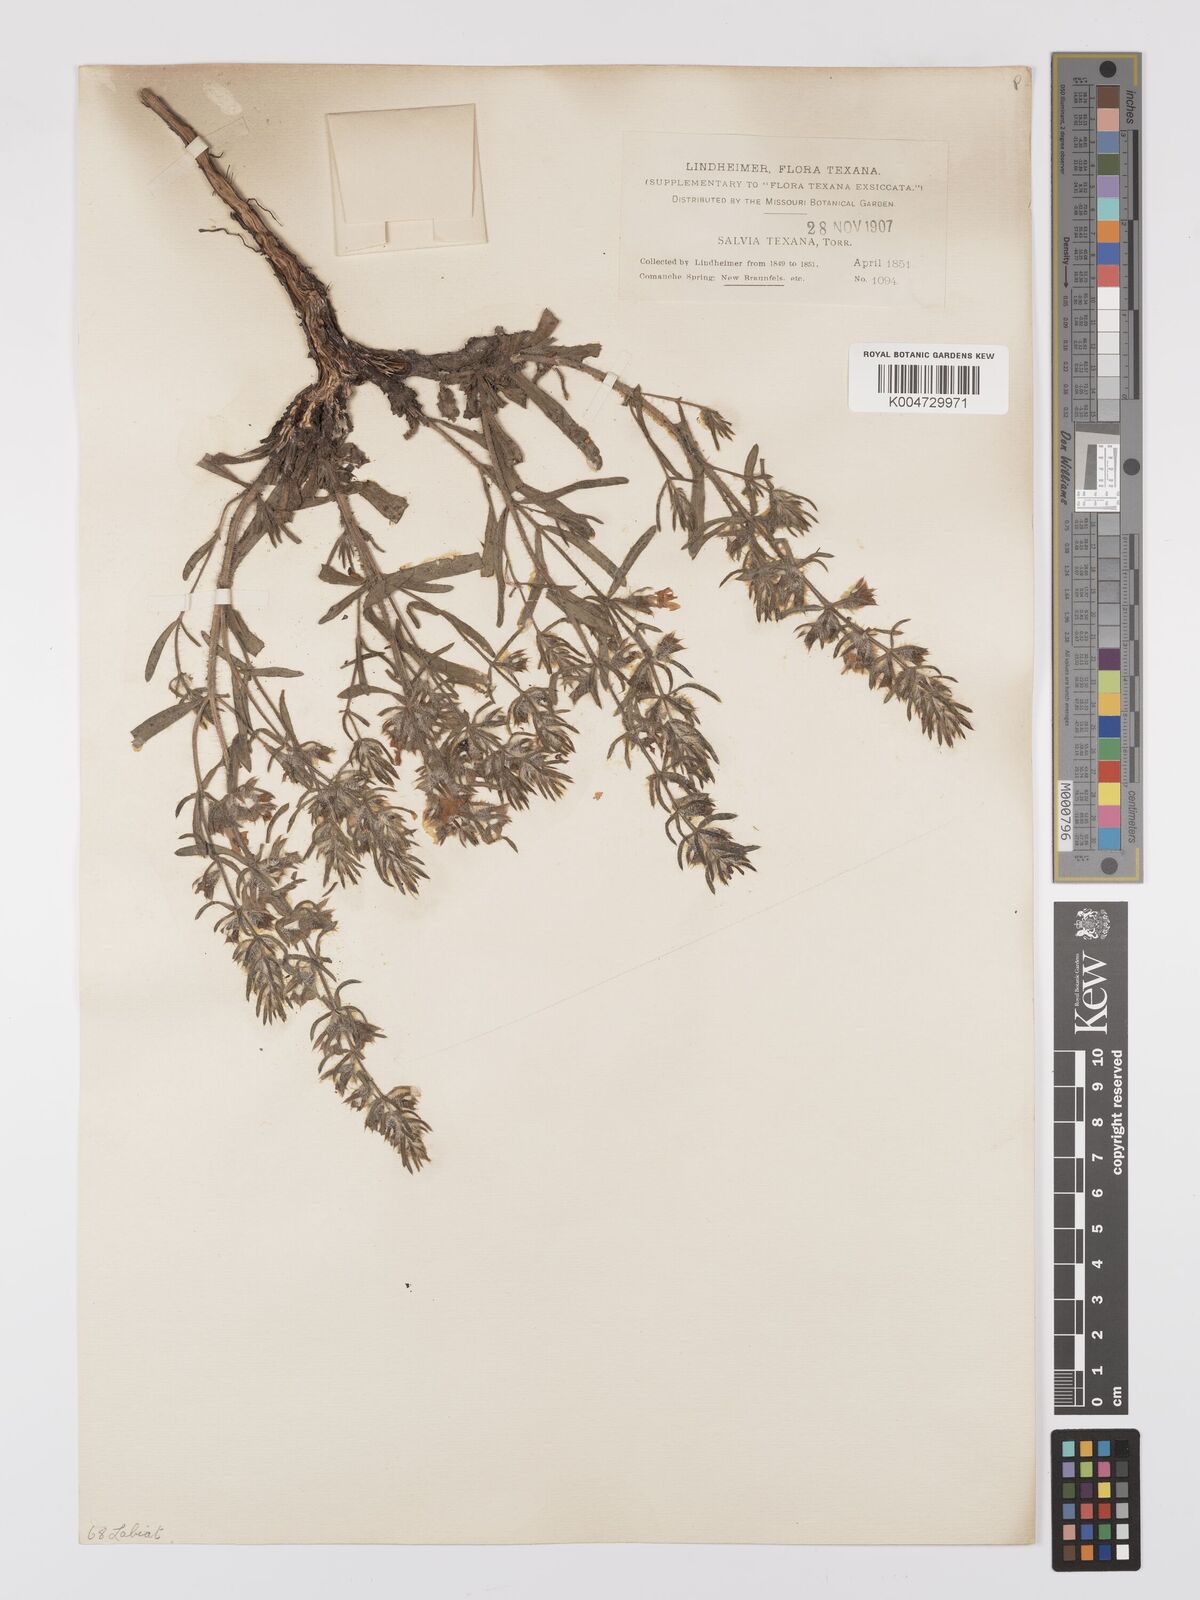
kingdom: Plantae
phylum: Tracheophyta
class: Magnoliopsida
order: Lamiales
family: Lamiaceae
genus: Salvia
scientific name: Salvia texana
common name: Texas sage
